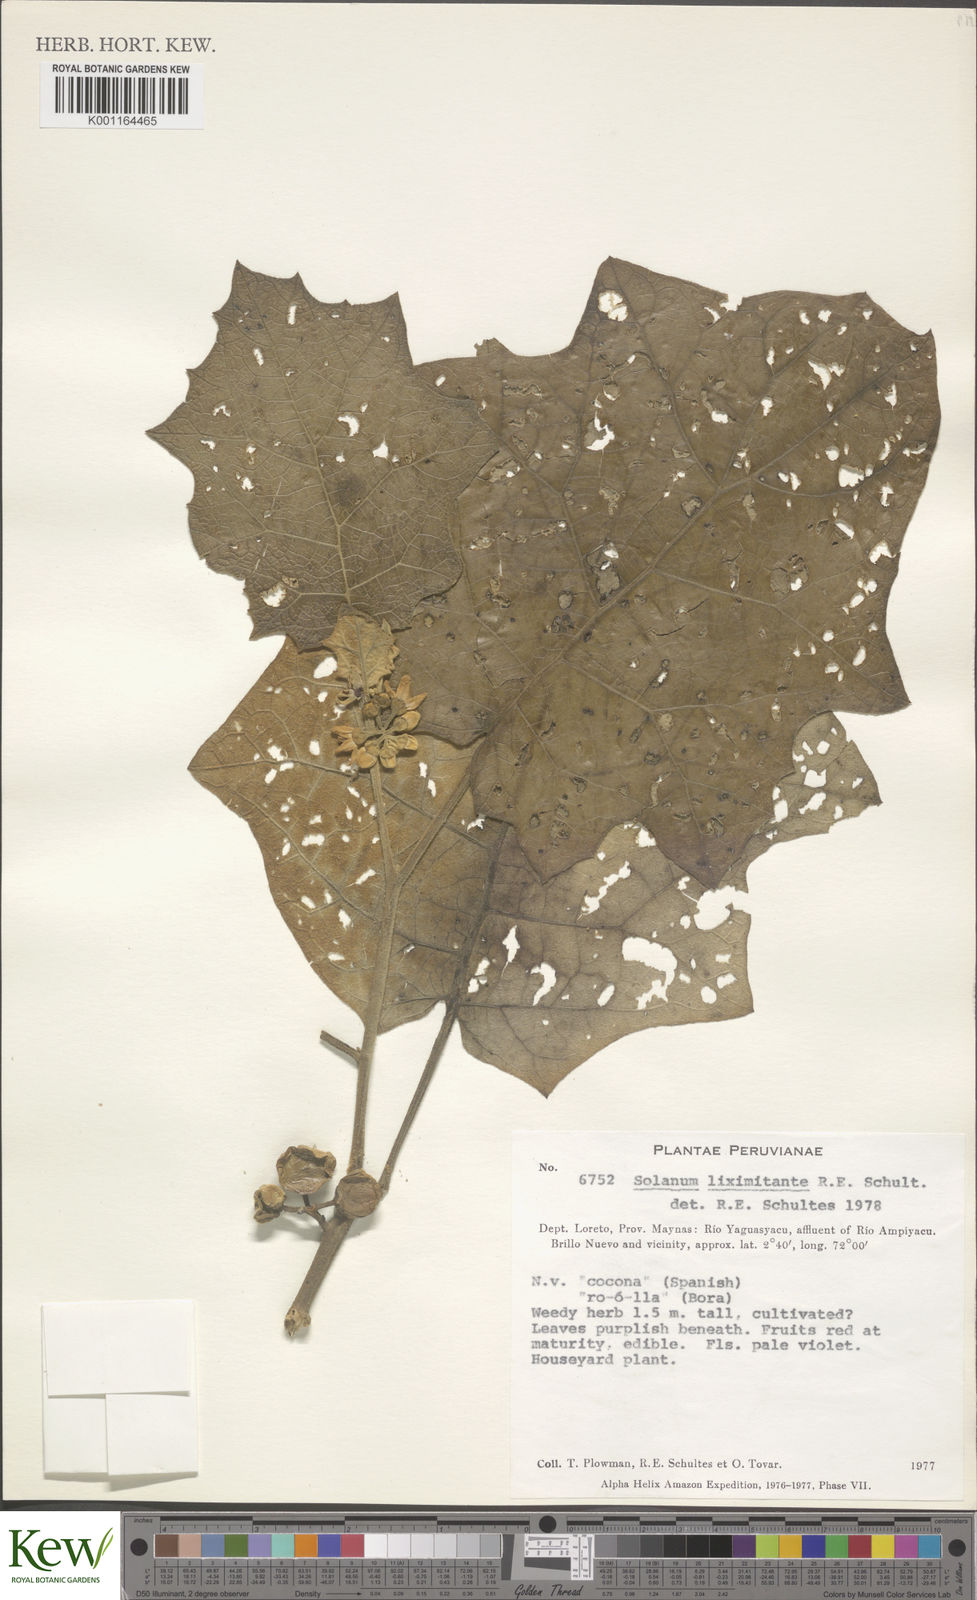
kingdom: Plantae
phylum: Tracheophyta
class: Magnoliopsida
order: Solanales
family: Solanaceae
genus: Solanum
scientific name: Solanum stramonifolium
